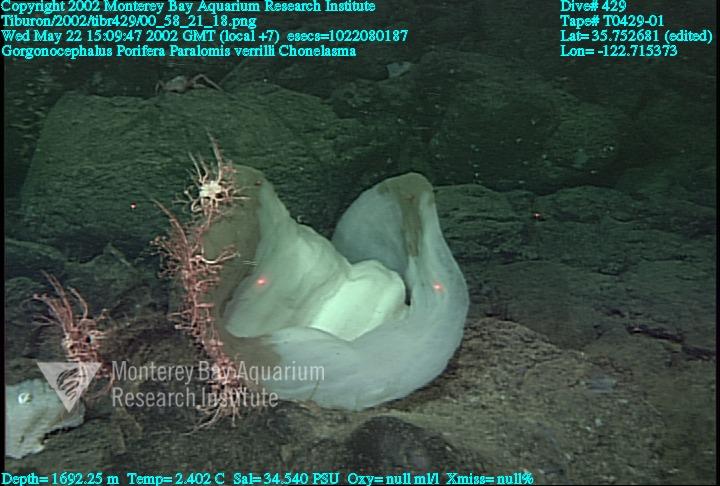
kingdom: Animalia
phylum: Porifera
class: Hexactinellida
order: Sceptrulophora
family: Euretidae
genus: Chonelasma
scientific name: Chonelasma
